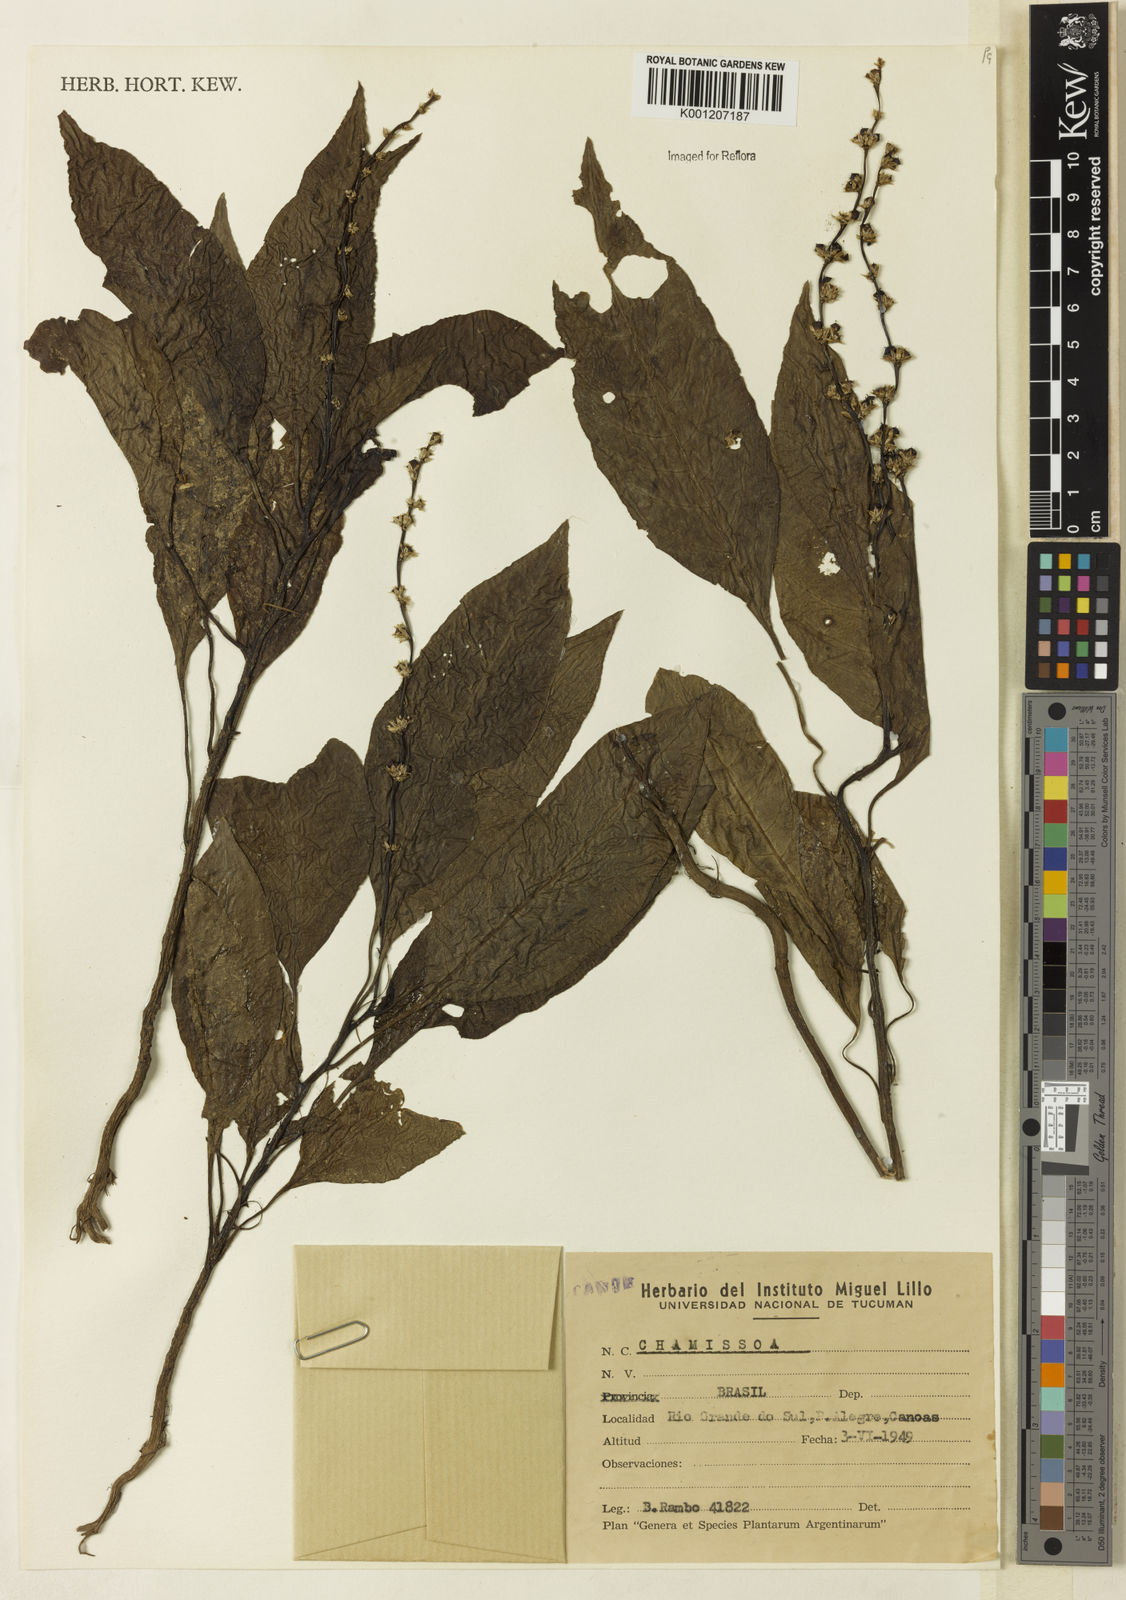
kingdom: Plantae
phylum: Tracheophyta
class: Magnoliopsida
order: Caryophyllales
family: Amaranthaceae
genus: Chamissoa
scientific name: Chamissoa
